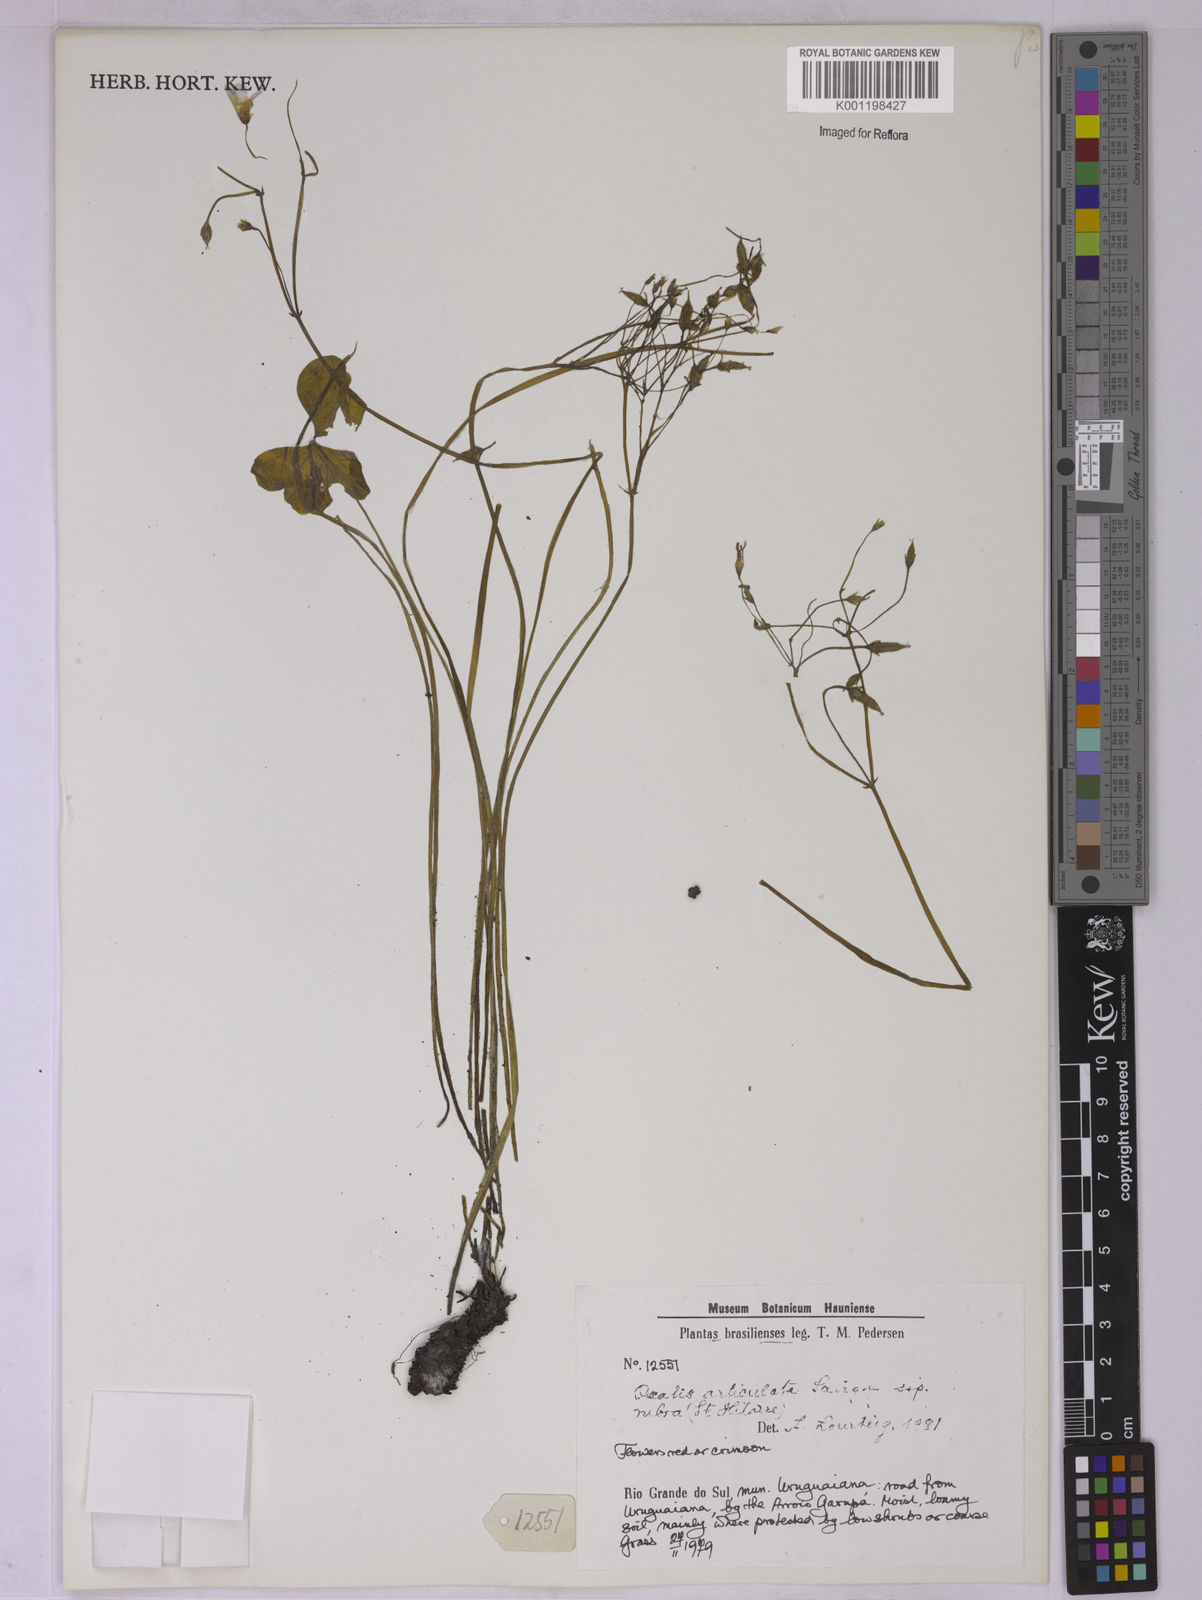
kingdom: Plantae
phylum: Tracheophyta
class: Magnoliopsida
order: Oxalidales
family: Oxalidaceae
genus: Oxalis
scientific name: Oxalis floribunda
